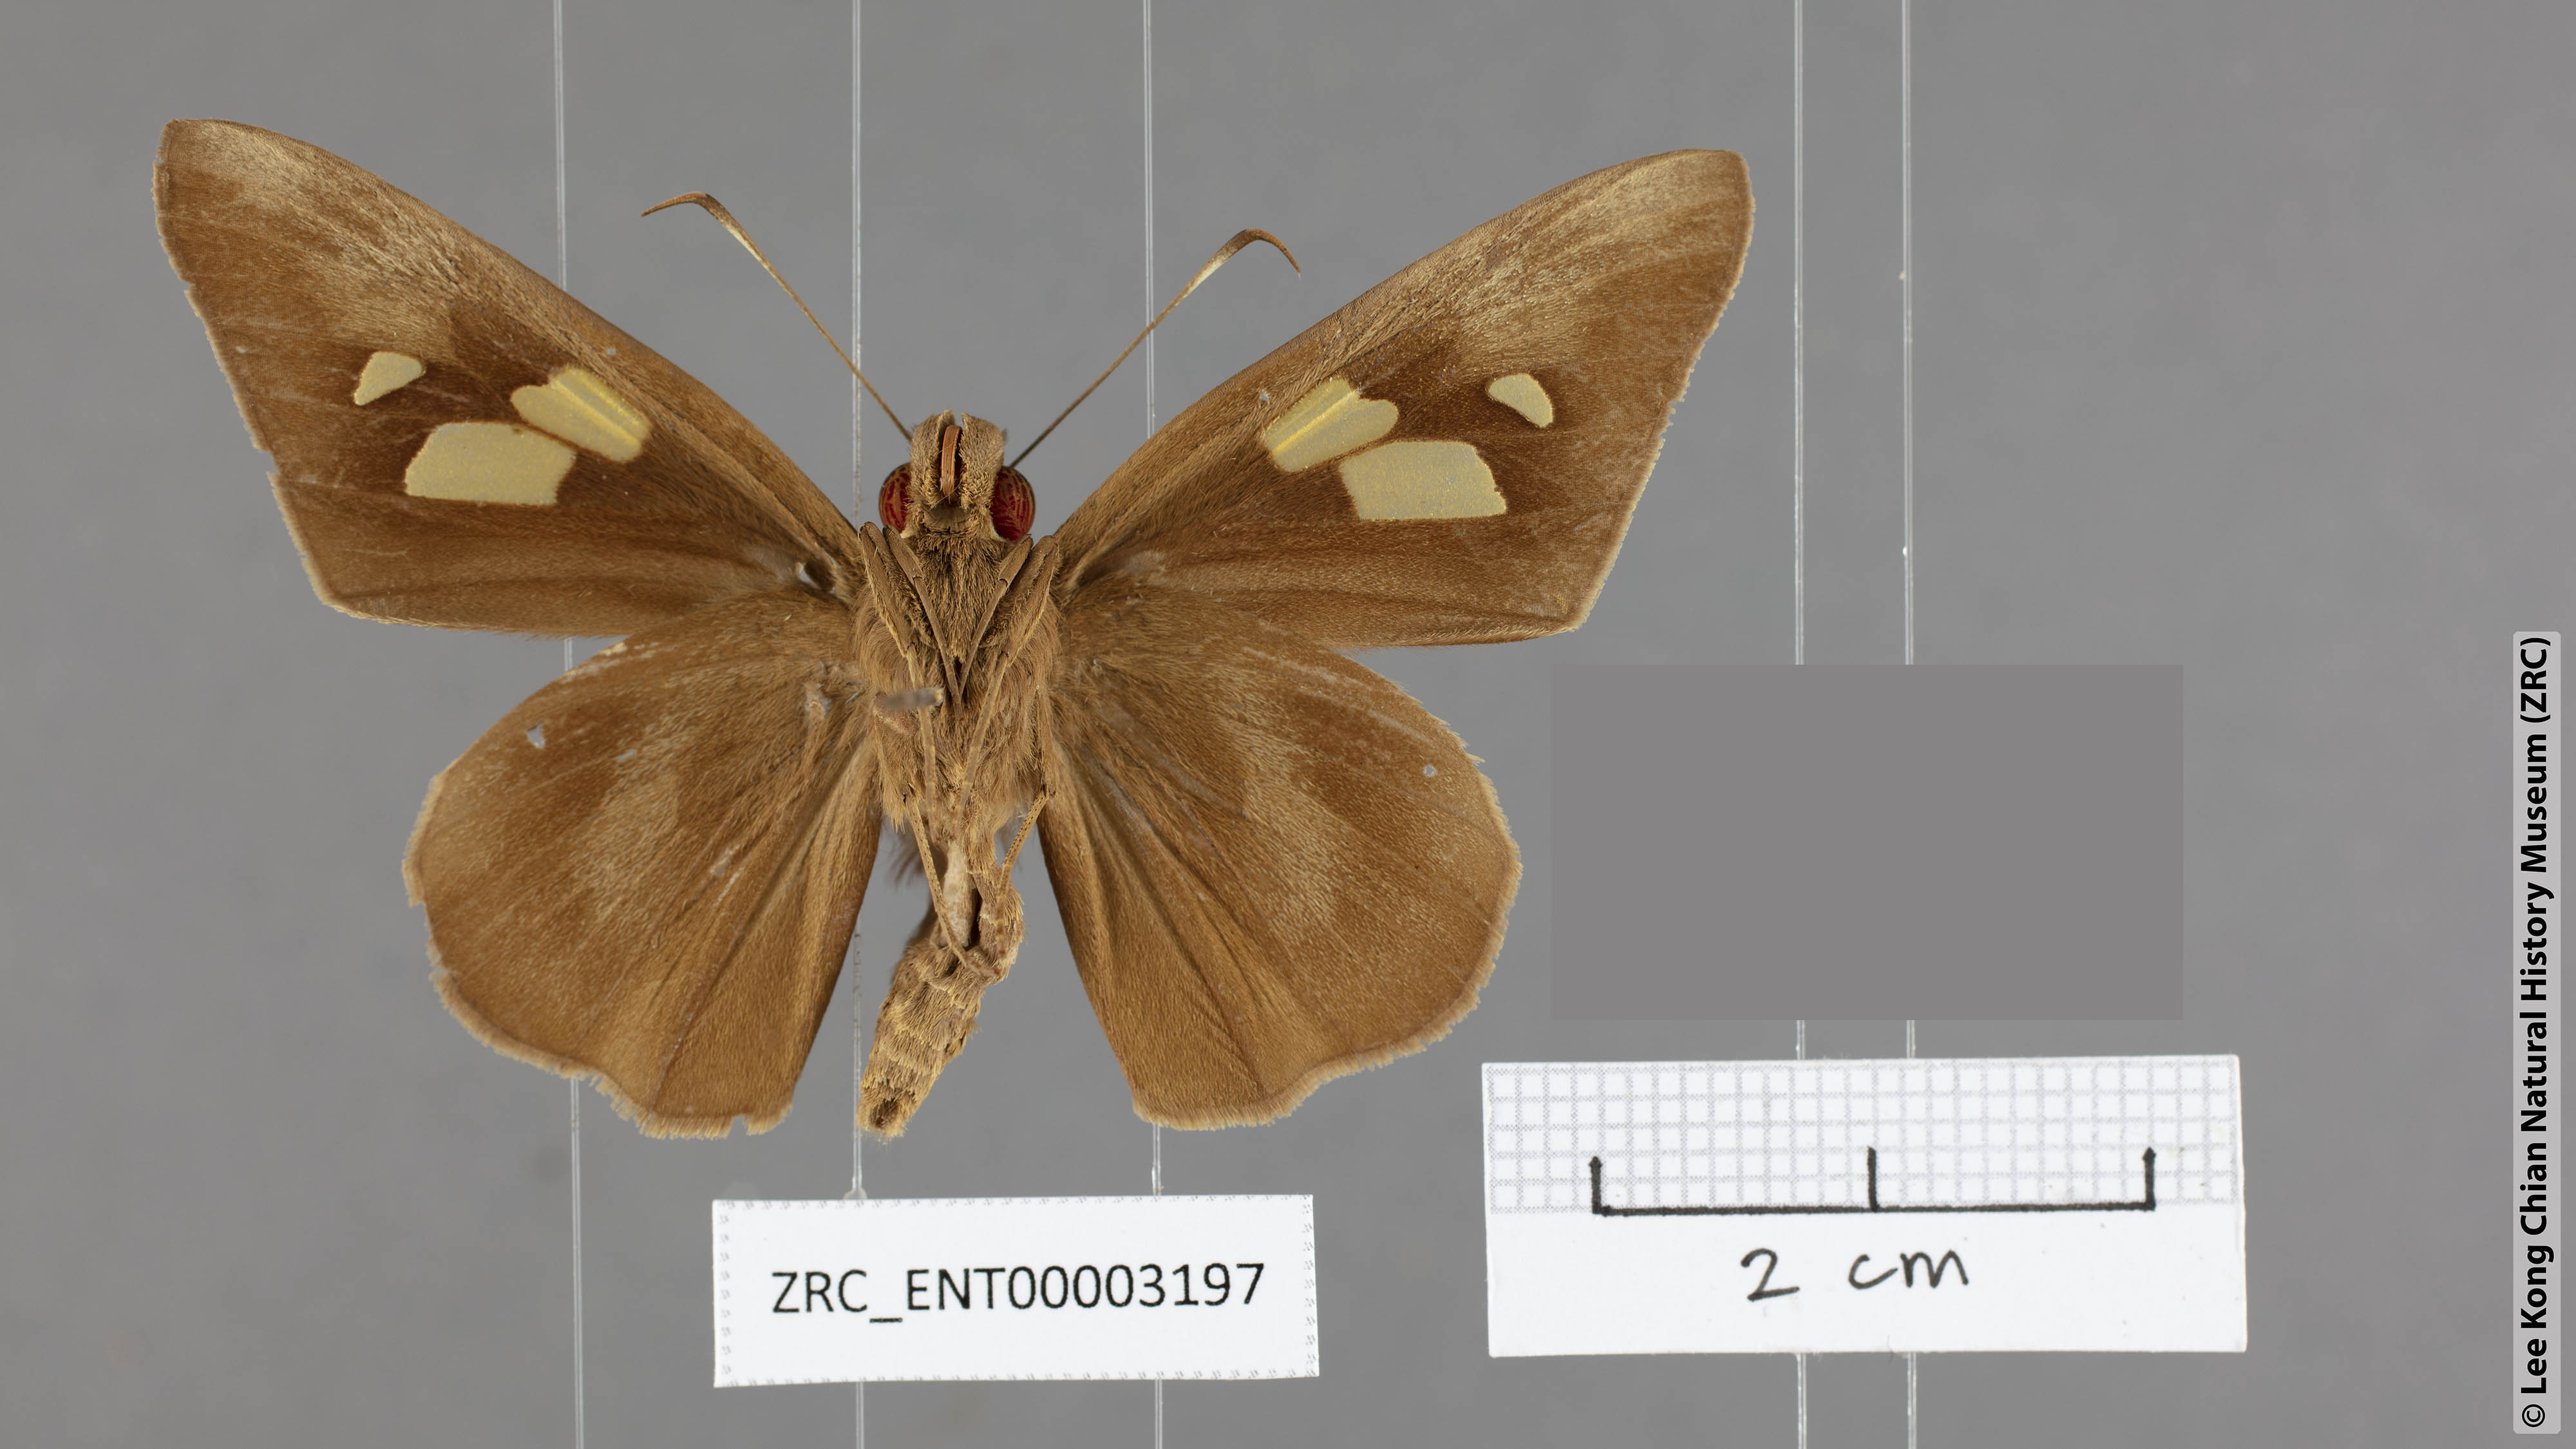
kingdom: Animalia
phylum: Arthropoda
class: Insecta
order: Lepidoptera
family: Hesperiidae
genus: Erionota
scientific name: Erionota hislopi
